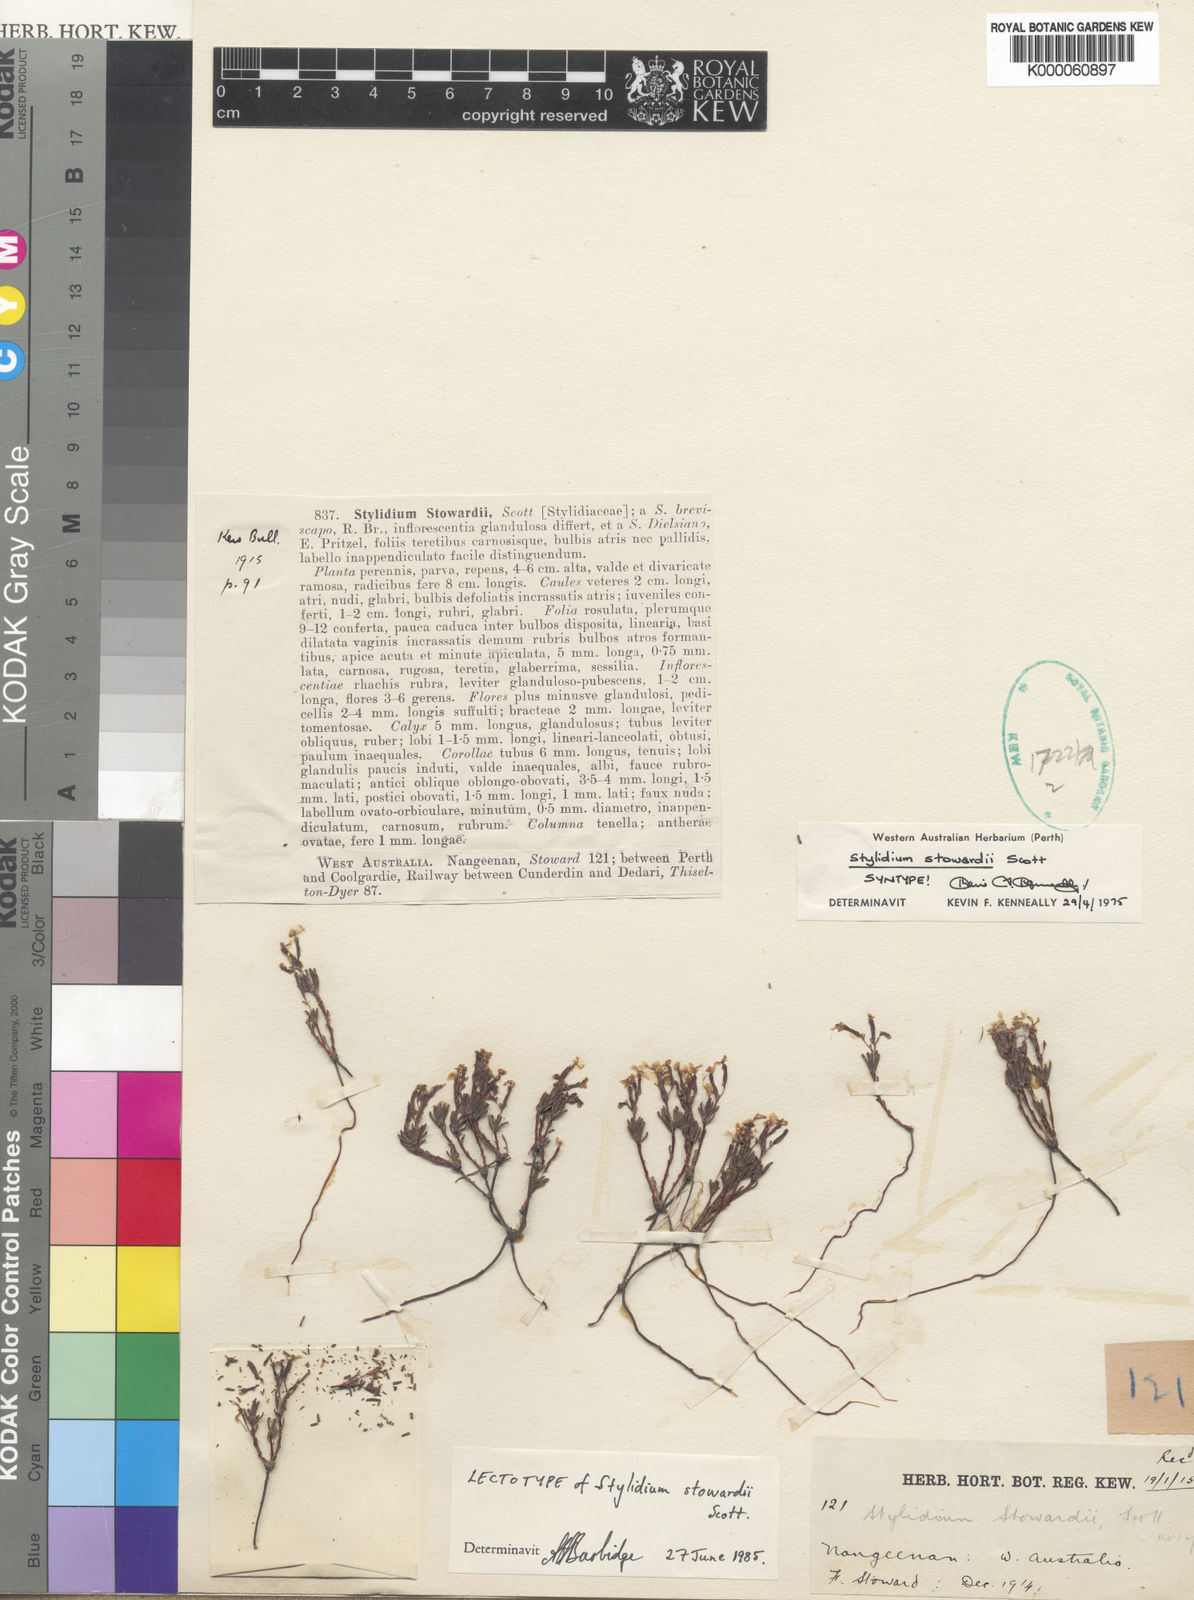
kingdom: Plantae
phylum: Tracheophyta
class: Magnoliopsida
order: Asterales
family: Stylidiaceae
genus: Stylidium
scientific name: Stylidium involucratum
